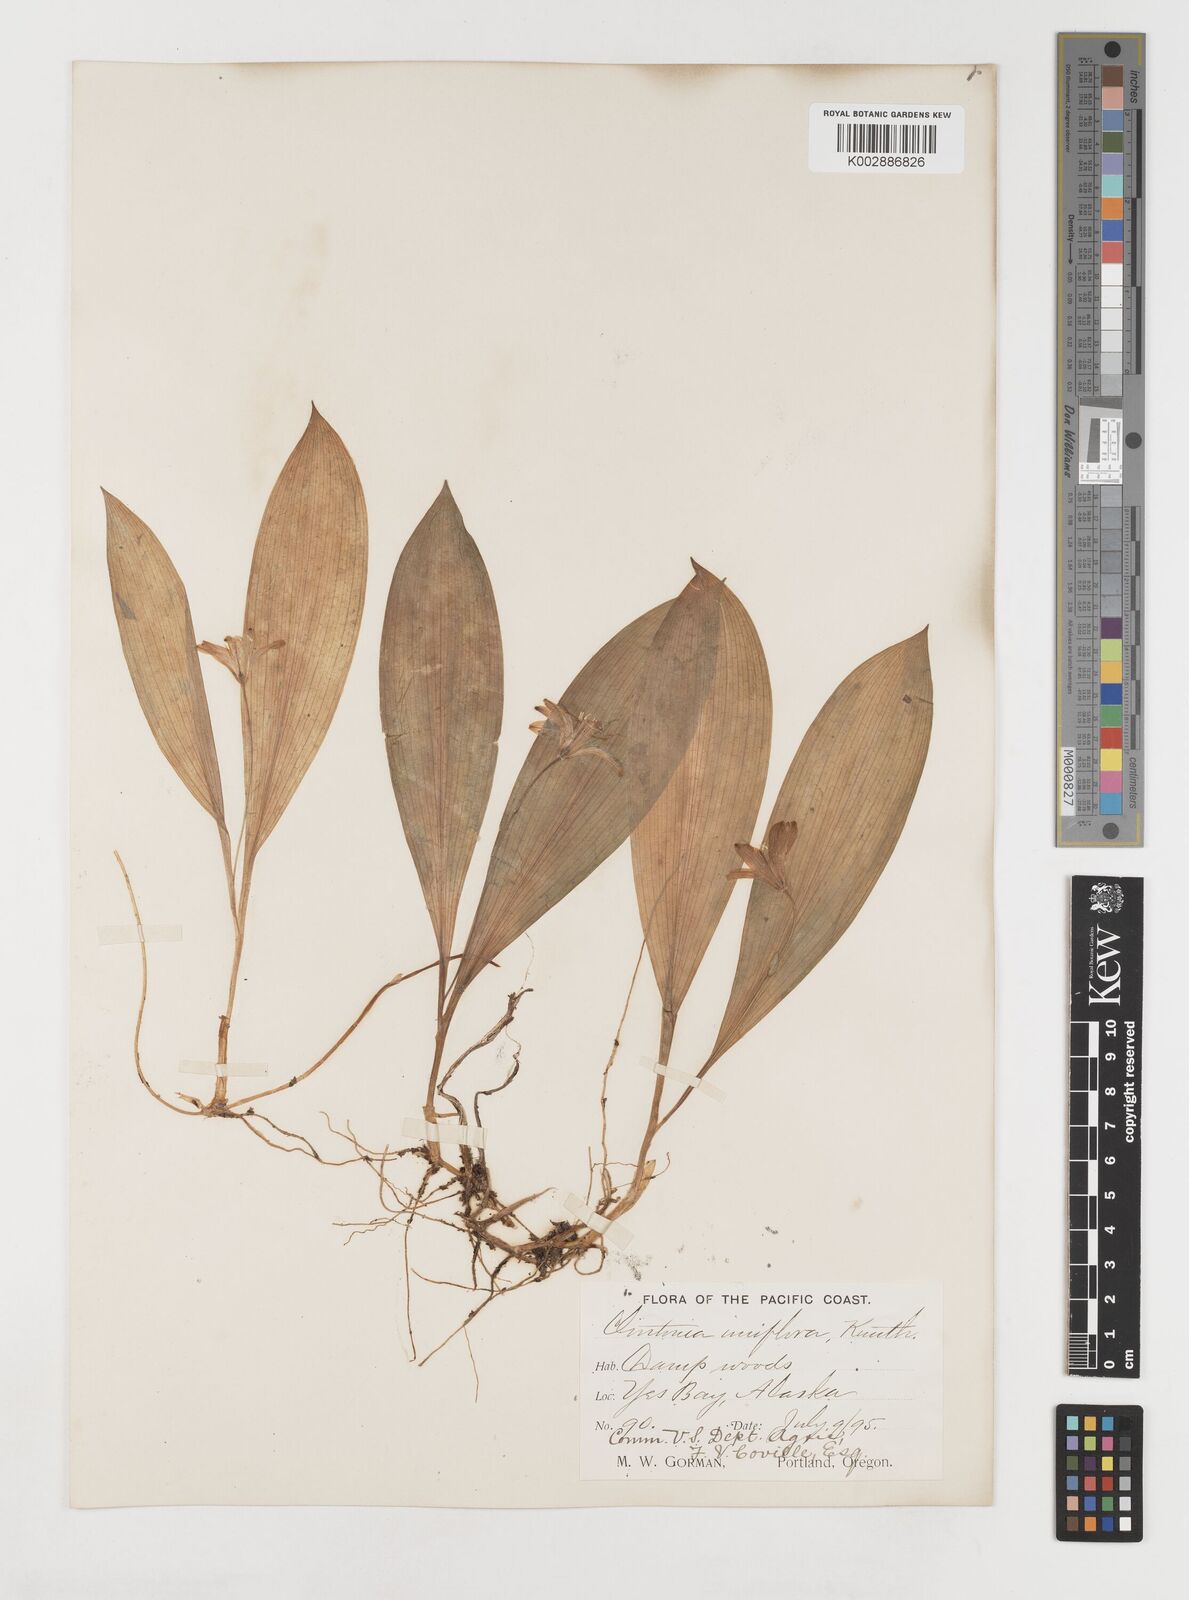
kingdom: Plantae
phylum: Tracheophyta
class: Liliopsida
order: Liliales
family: Liliaceae
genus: Clintonia
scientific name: Clintonia uniflora
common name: Queen's cup
